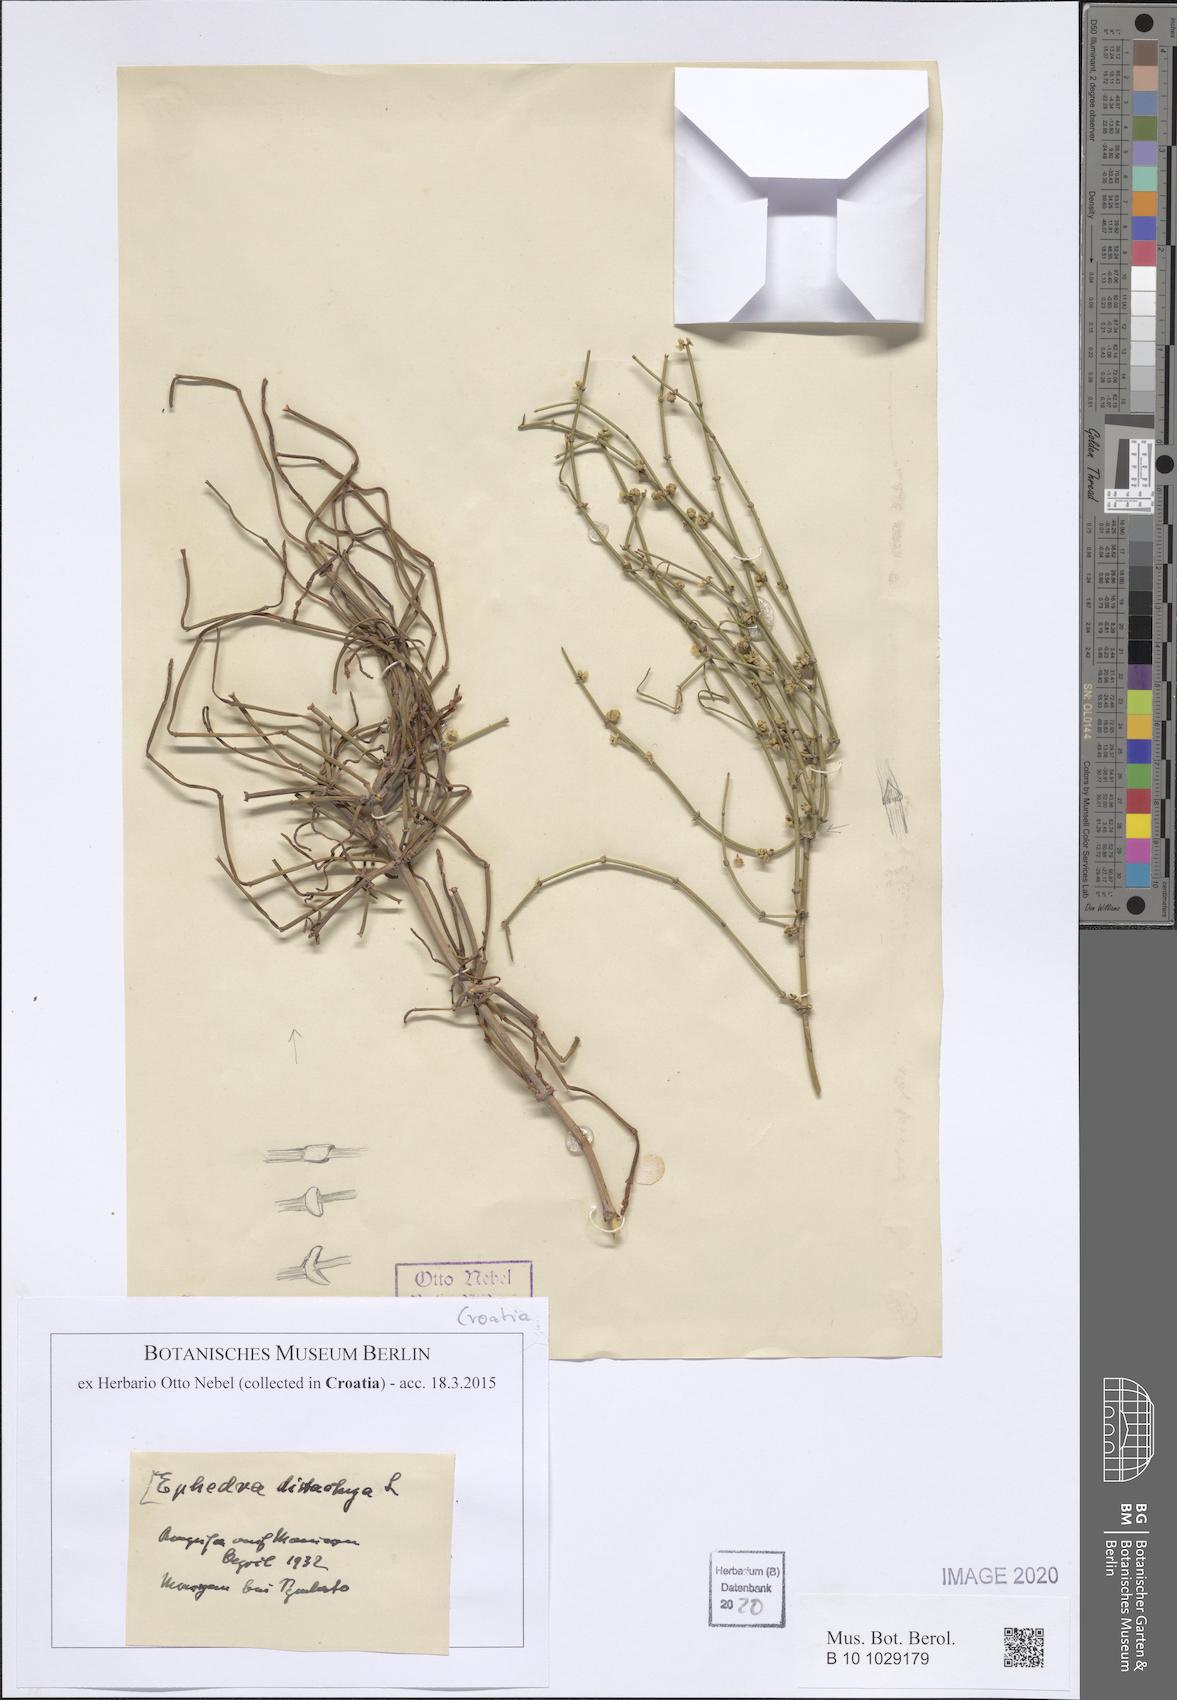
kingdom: Plantae
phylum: Tracheophyta
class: Gnetopsida
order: Ephedrales
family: Ephedraceae
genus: Ephedra
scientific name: Ephedra distachya
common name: Sea grape
